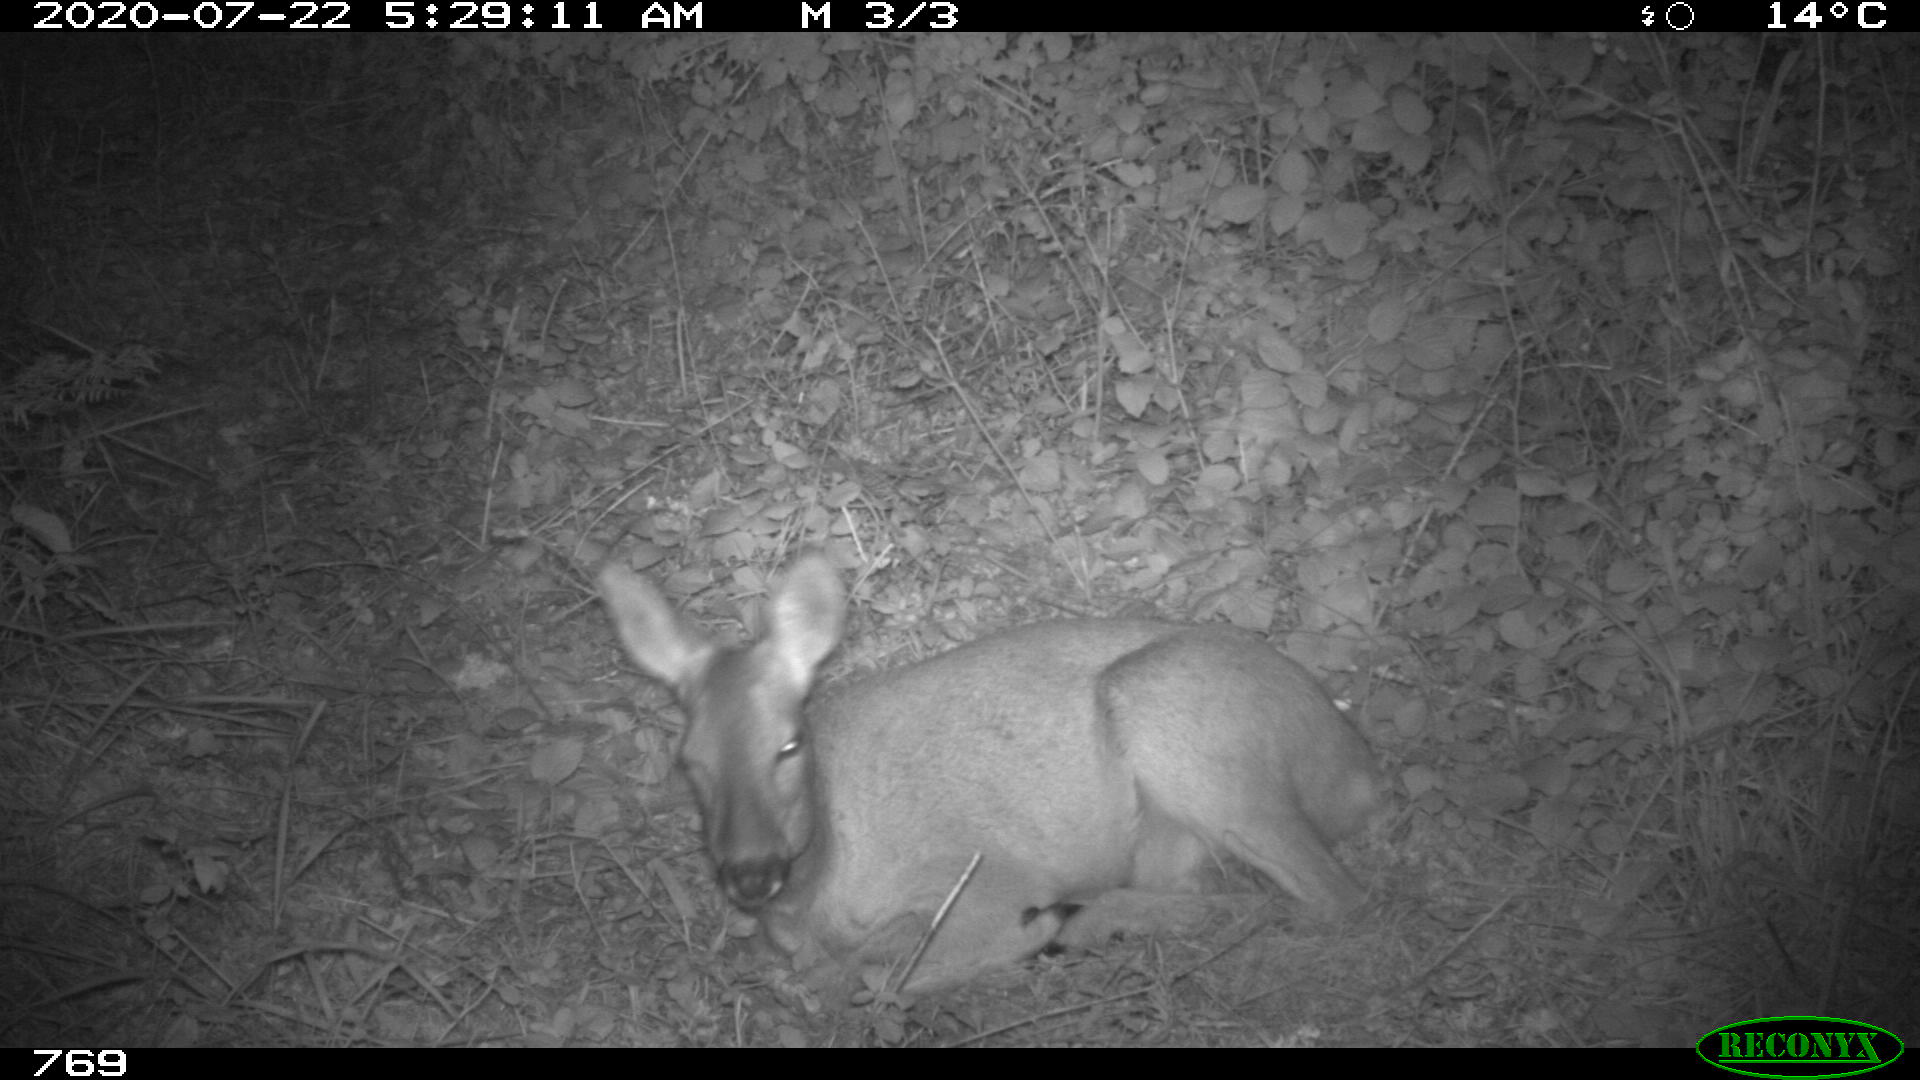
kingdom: Animalia
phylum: Chordata
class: Mammalia
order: Artiodactyla
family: Cervidae
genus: Capreolus
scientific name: Capreolus capreolus
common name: Western roe deer
